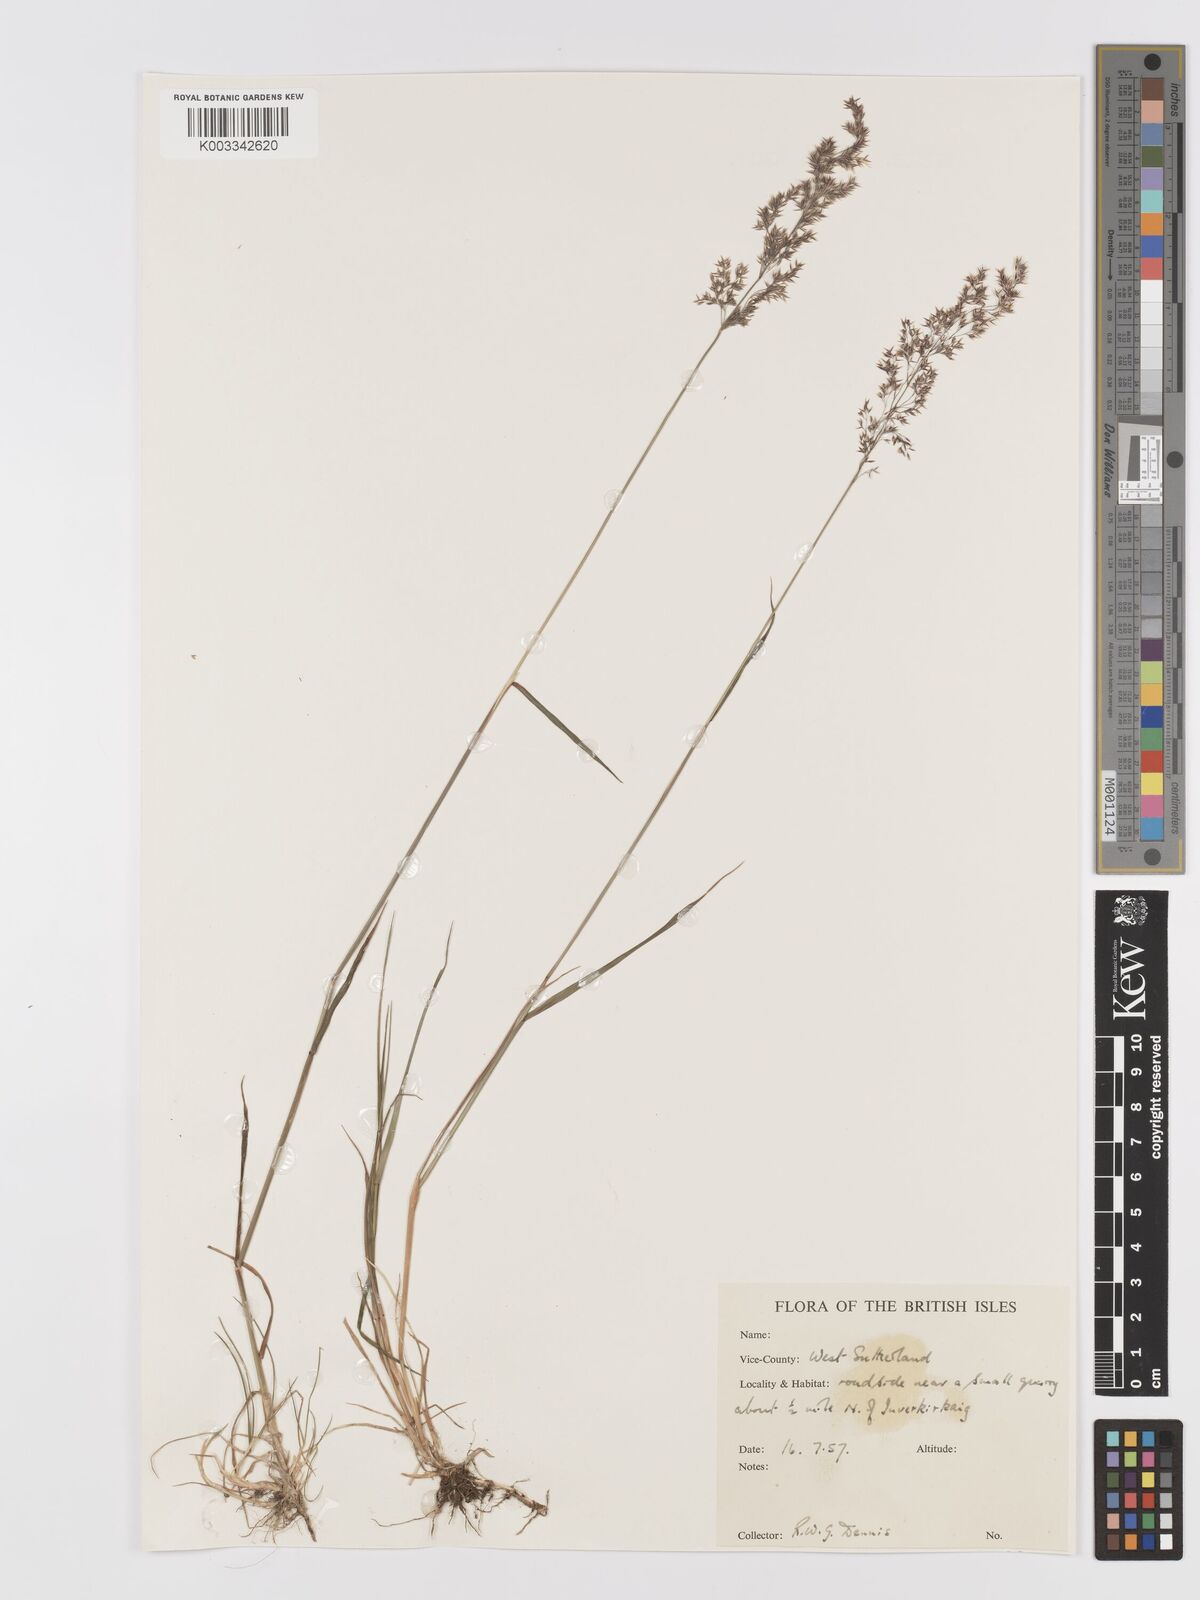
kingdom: Plantae
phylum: Tracheophyta
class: Liliopsida
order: Poales
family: Poaceae
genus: Agrostis
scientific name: Agrostis
